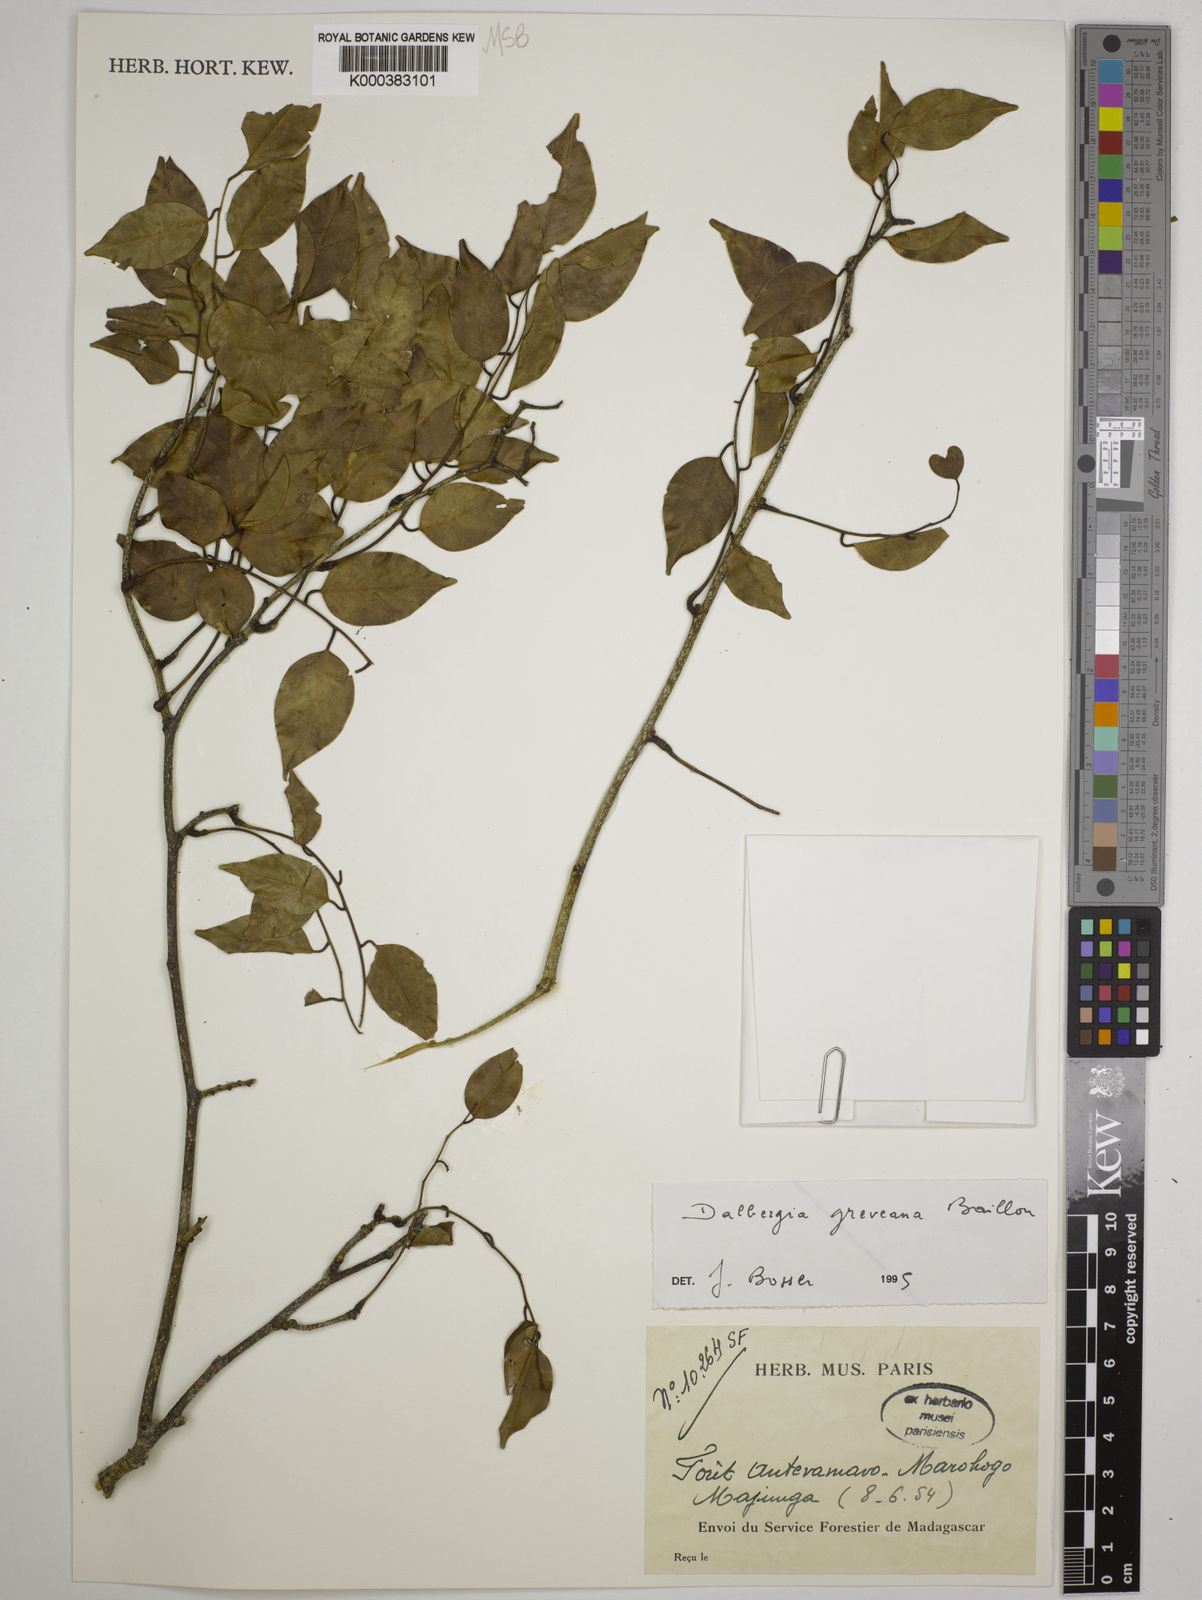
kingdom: Plantae
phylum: Tracheophyta
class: Magnoliopsida
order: Fabales
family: Fabaceae
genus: Dalbergia
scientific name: Dalbergia greveana
